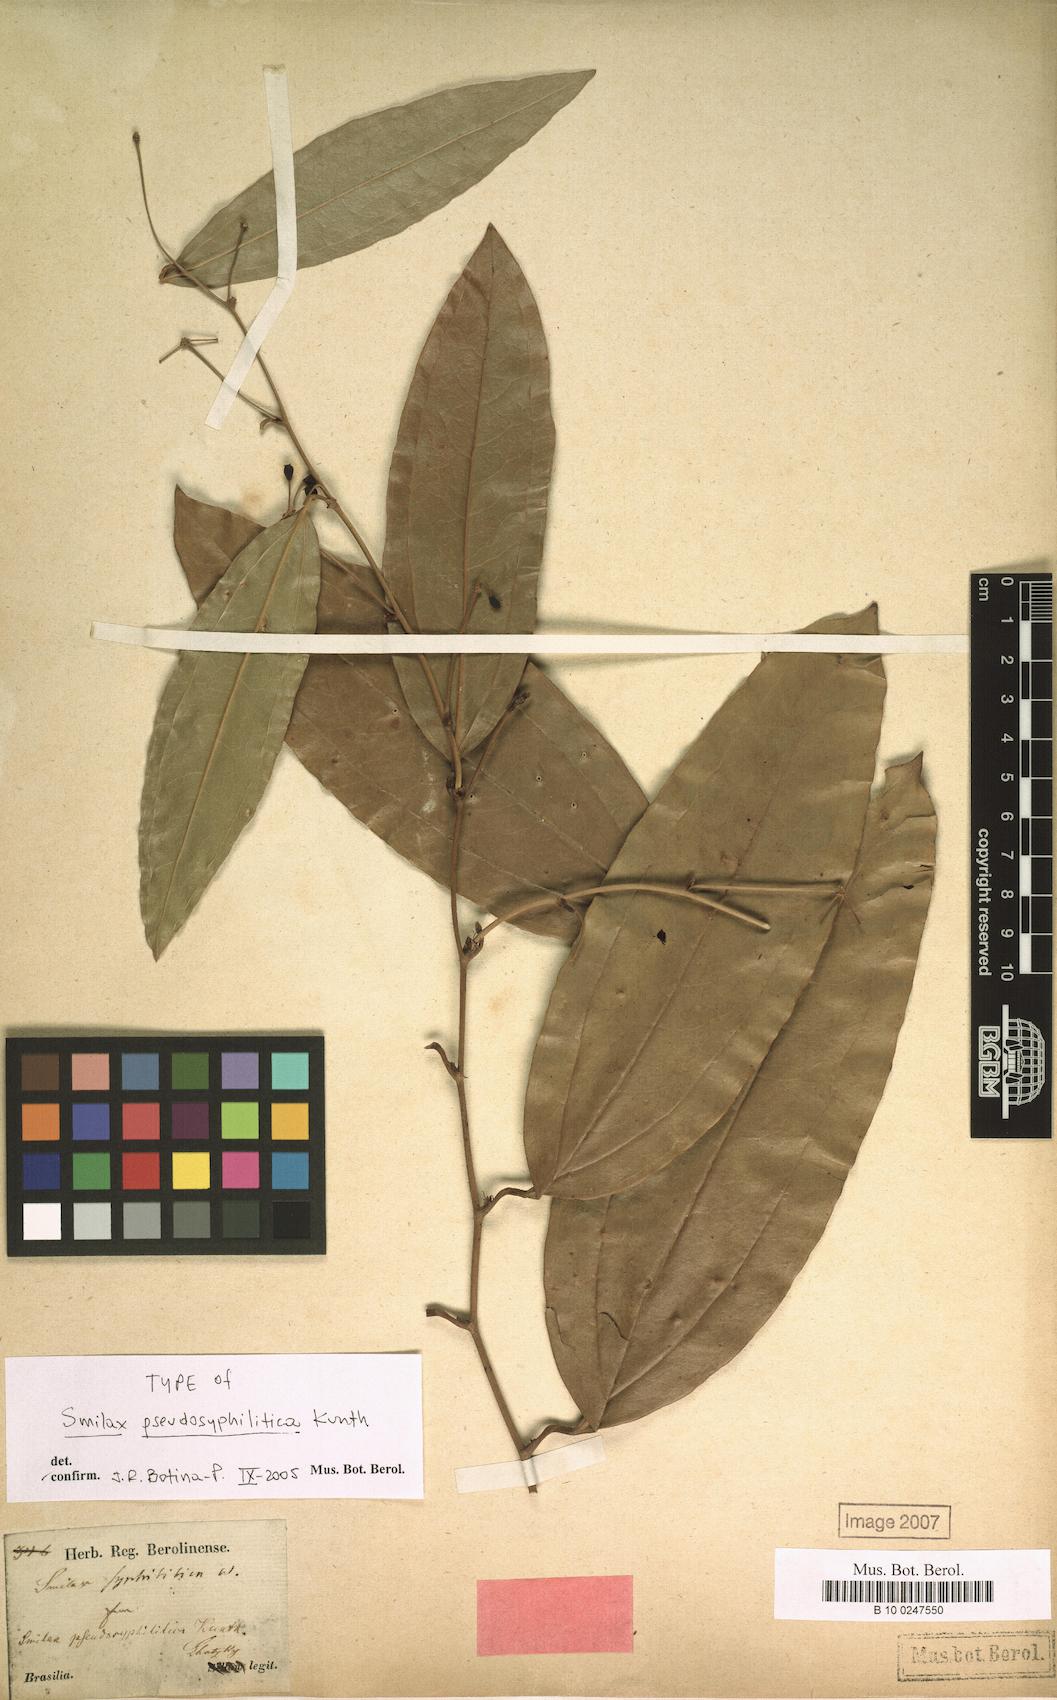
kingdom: Plantae
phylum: Tracheophyta
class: Liliopsida
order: Liliales
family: Smilacaceae
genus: Smilax
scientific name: Smilax schomburgkiana
